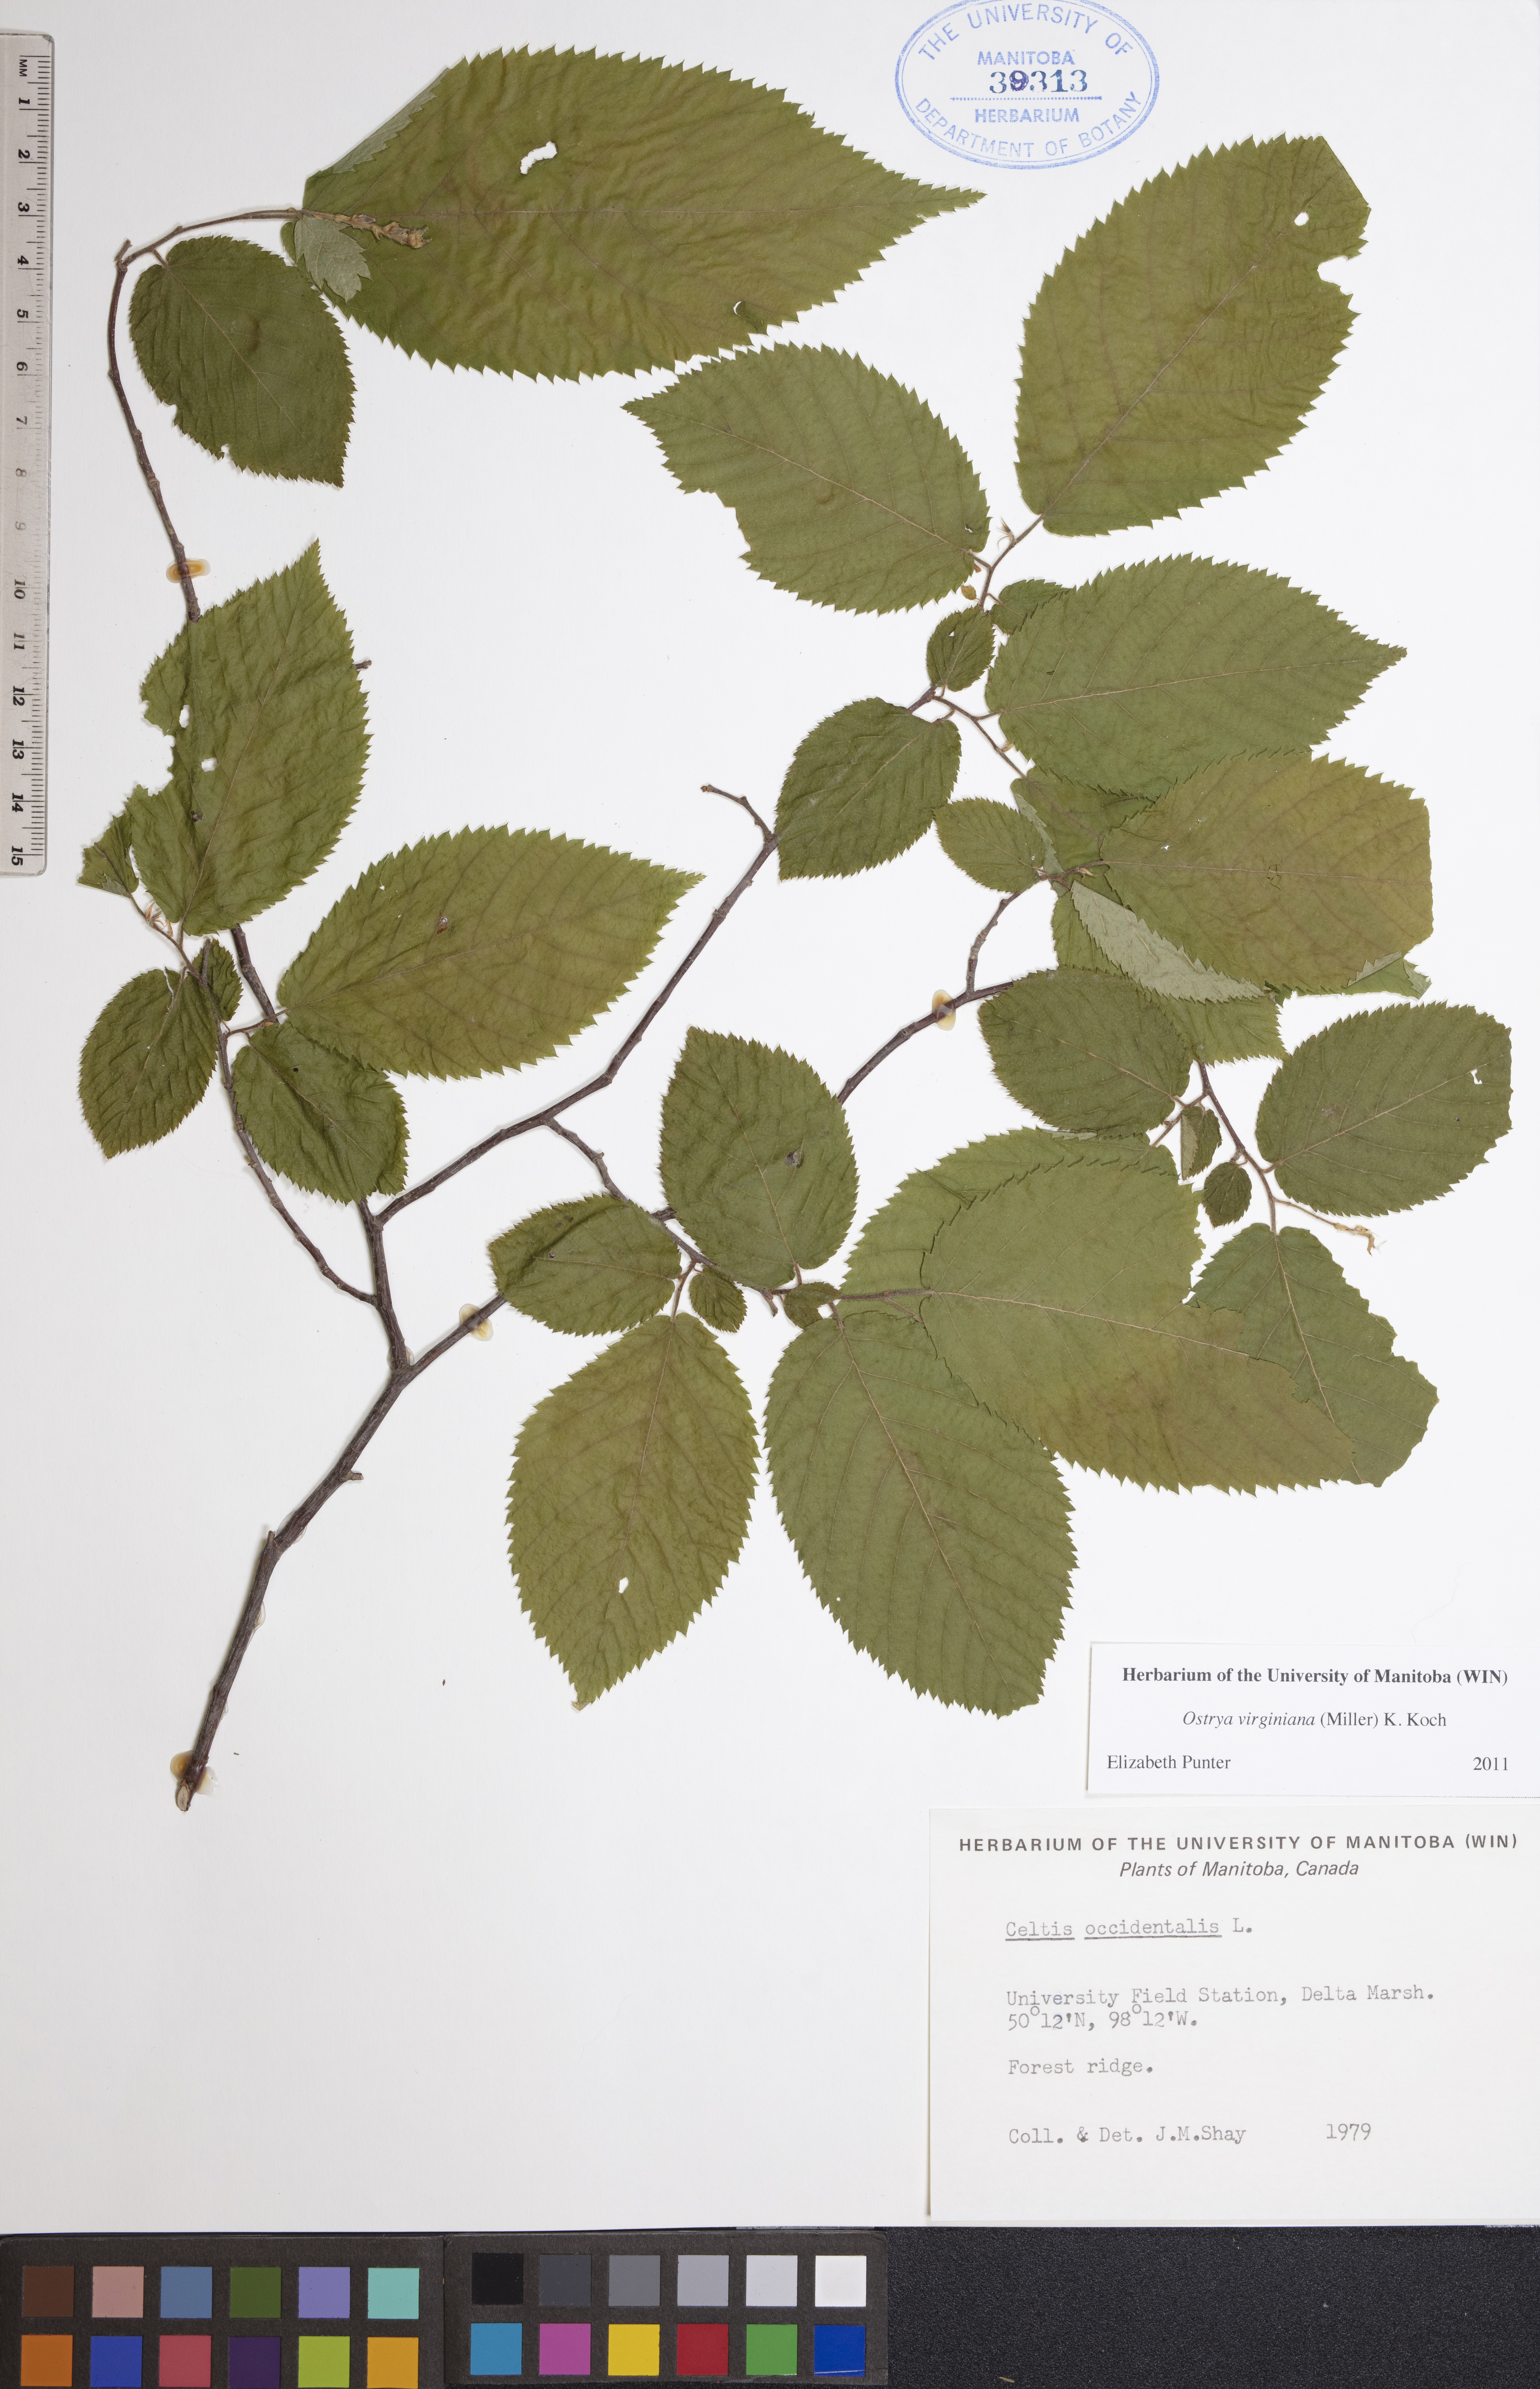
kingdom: Plantae
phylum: Tracheophyta
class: Magnoliopsida
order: Fagales
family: Betulaceae
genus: Ostrya
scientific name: Ostrya virginiana
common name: Ironwood
